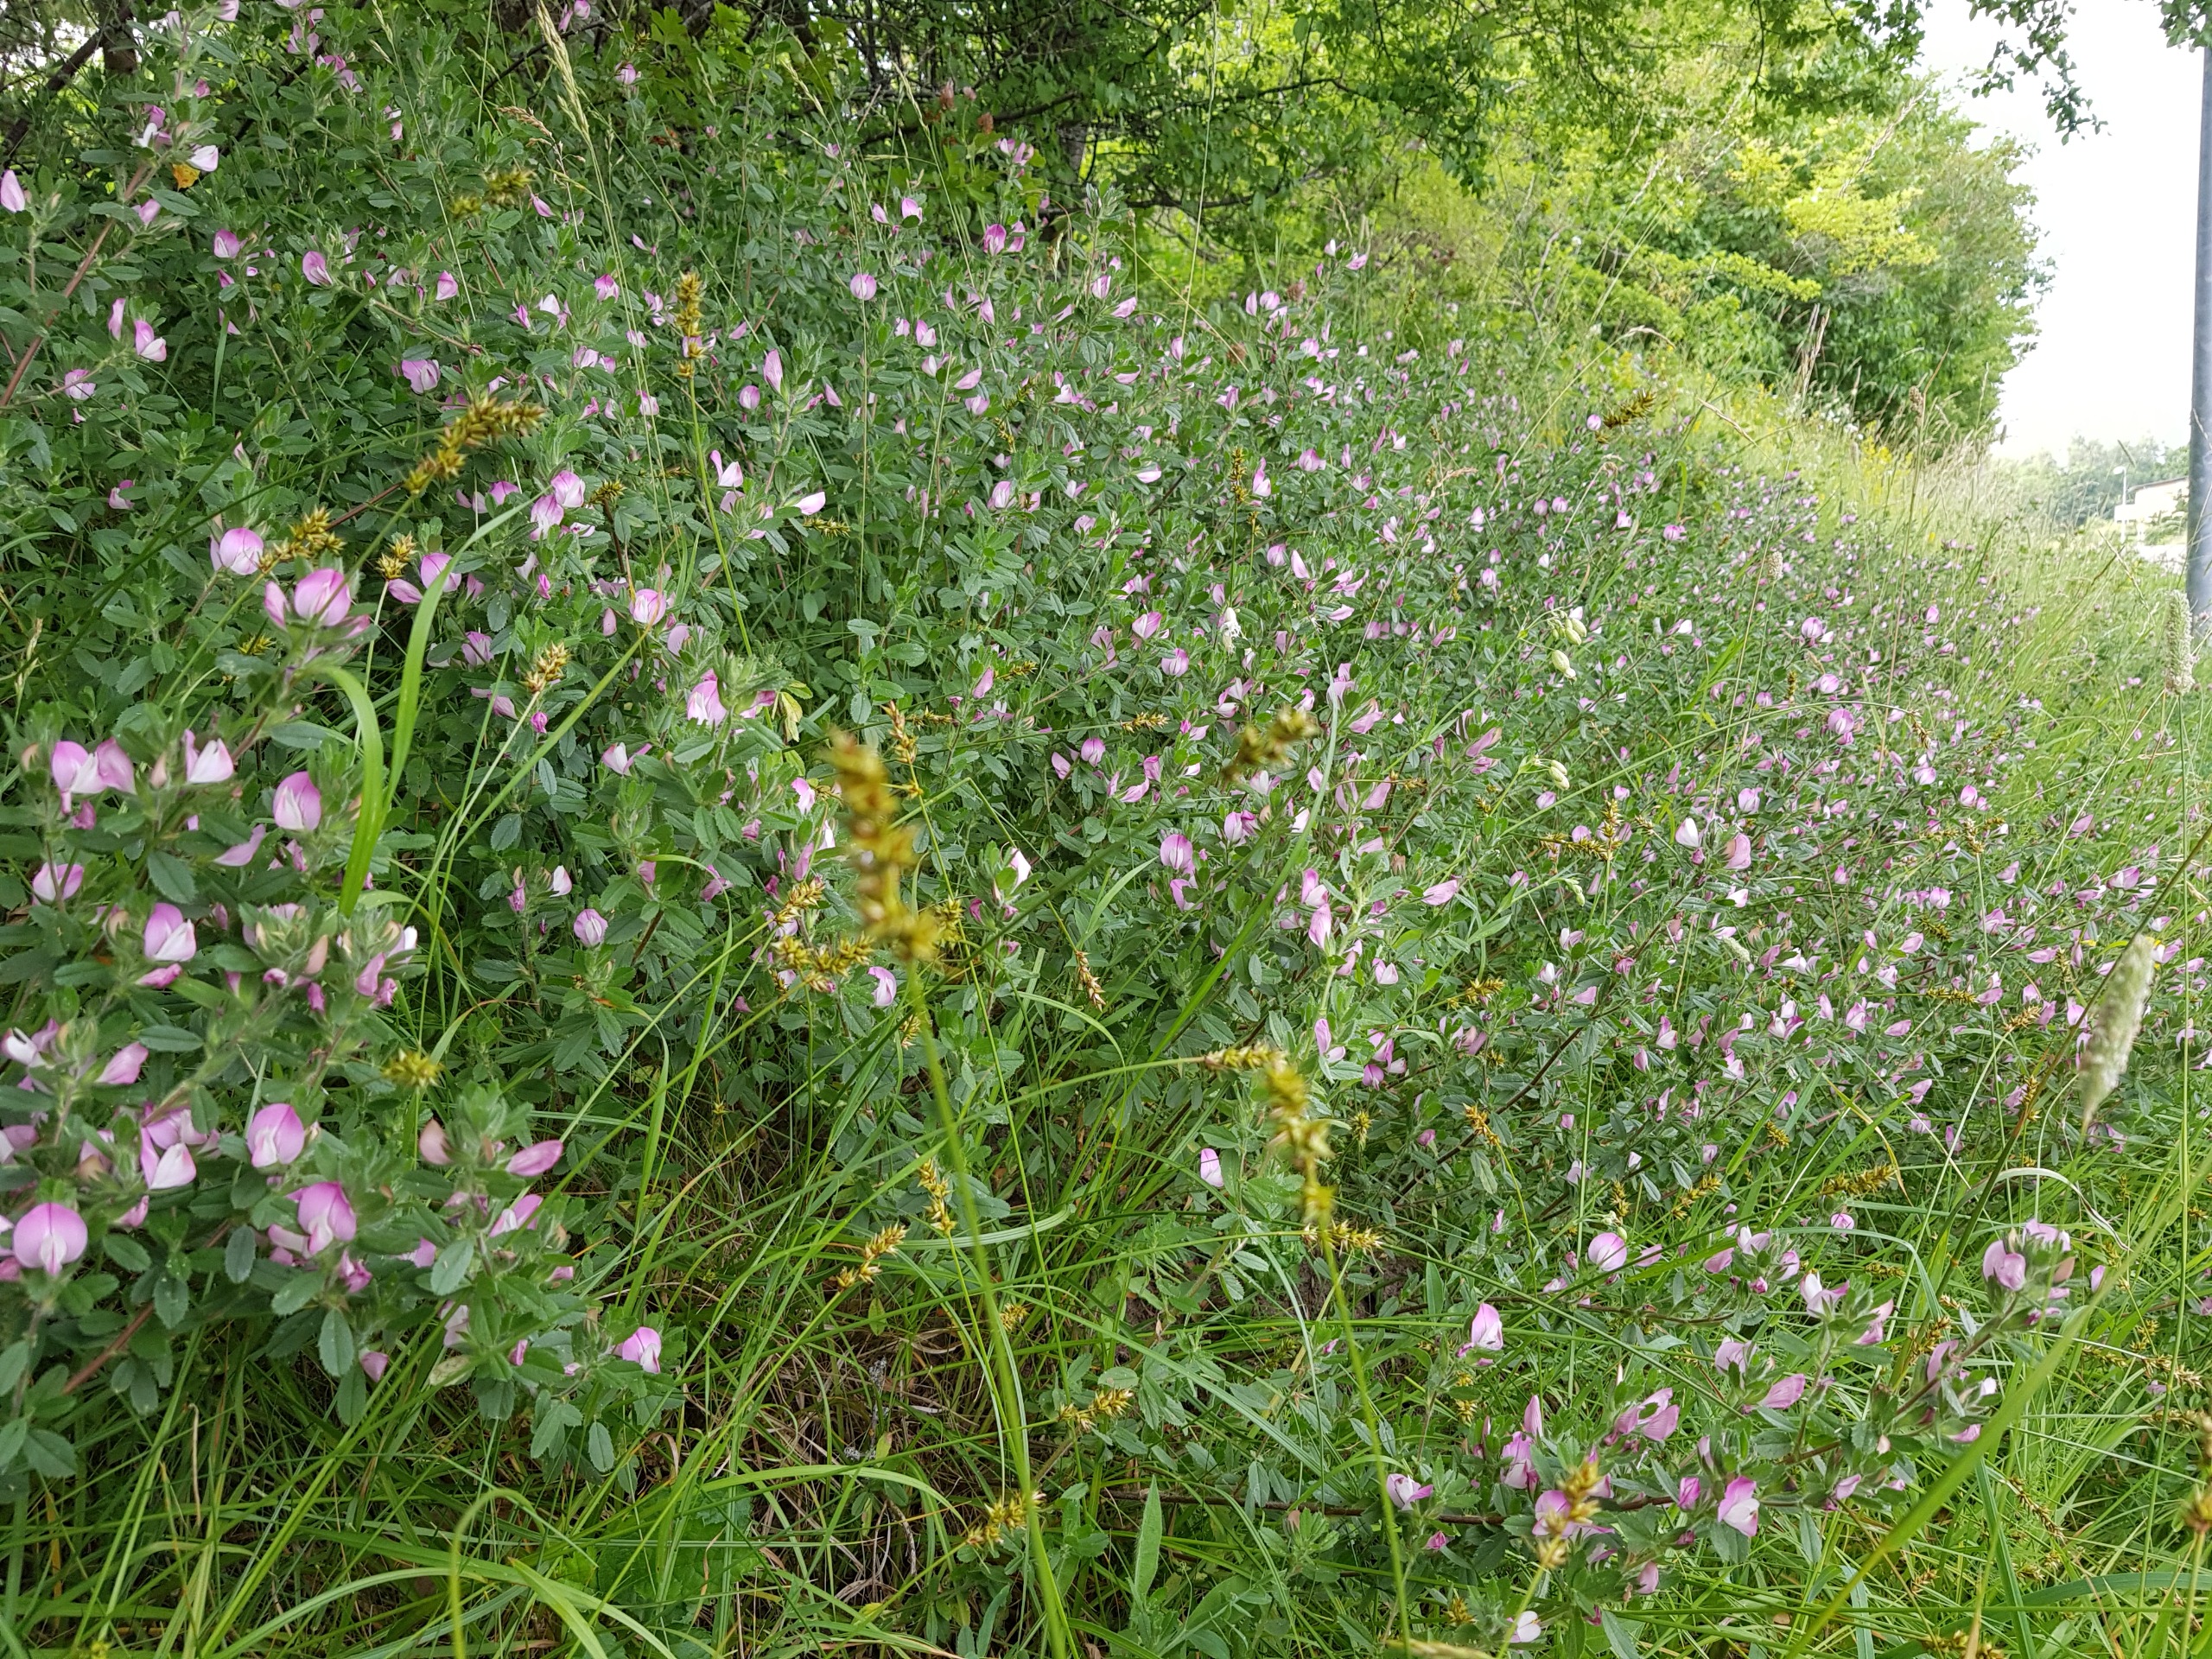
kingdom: Plantae
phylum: Tracheophyta
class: Magnoliopsida
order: Fabales
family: Fabaceae
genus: Ononis
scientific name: Ononis spinosa
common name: Mark-krageklo
